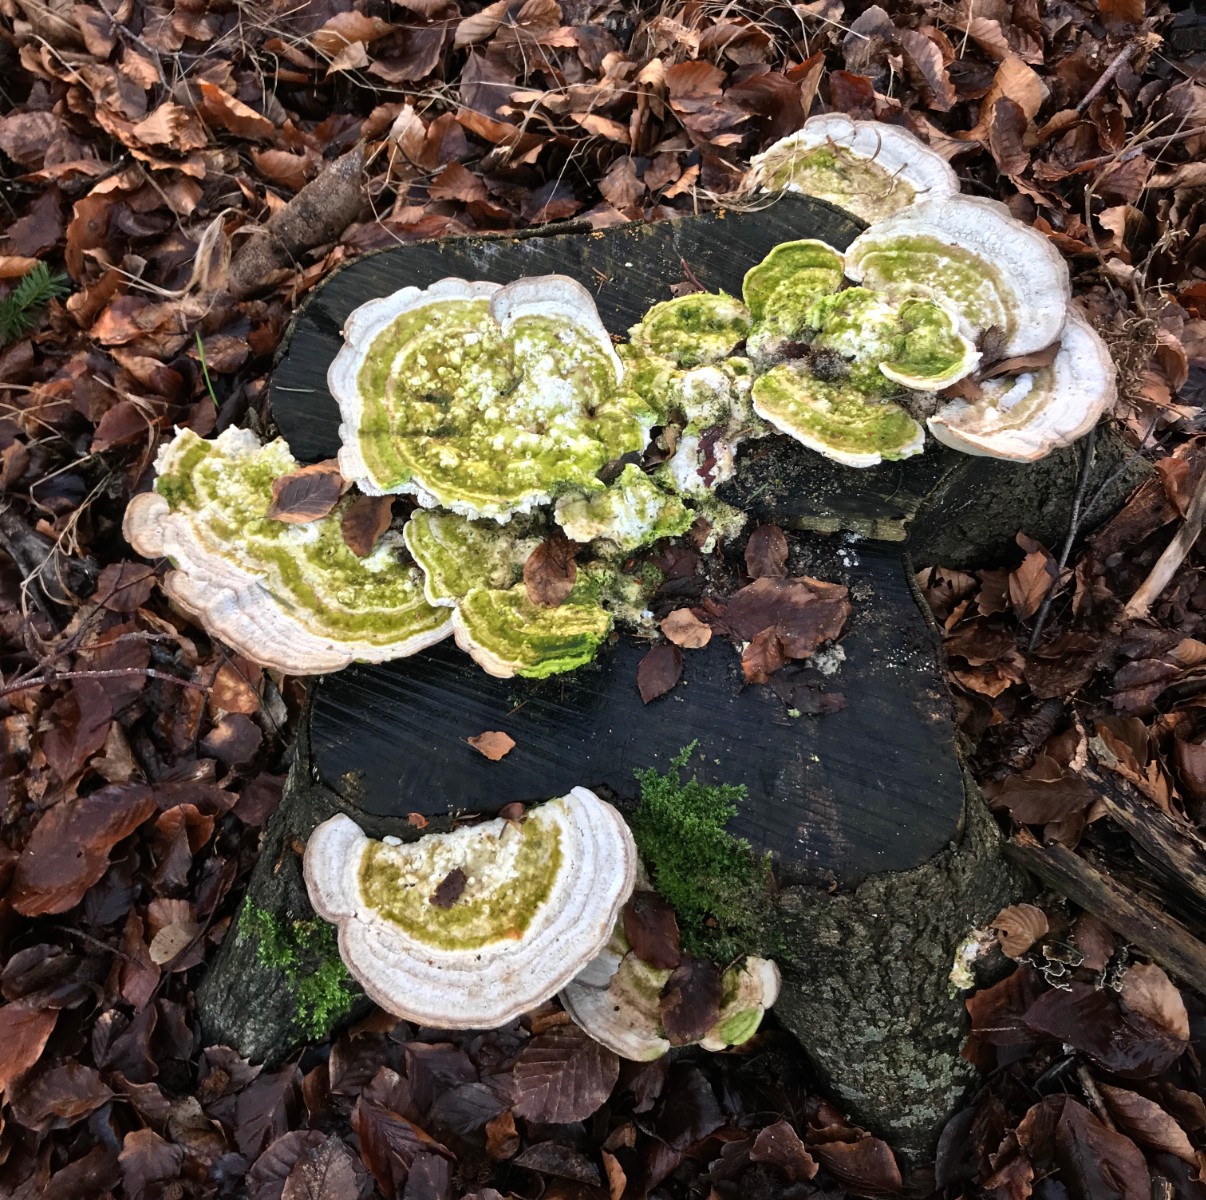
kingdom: Fungi
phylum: Basidiomycota
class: Agaricomycetes
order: Polyporales
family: Polyporaceae
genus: Trametes
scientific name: Trametes gibbosa
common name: puklet læderporesvamp
